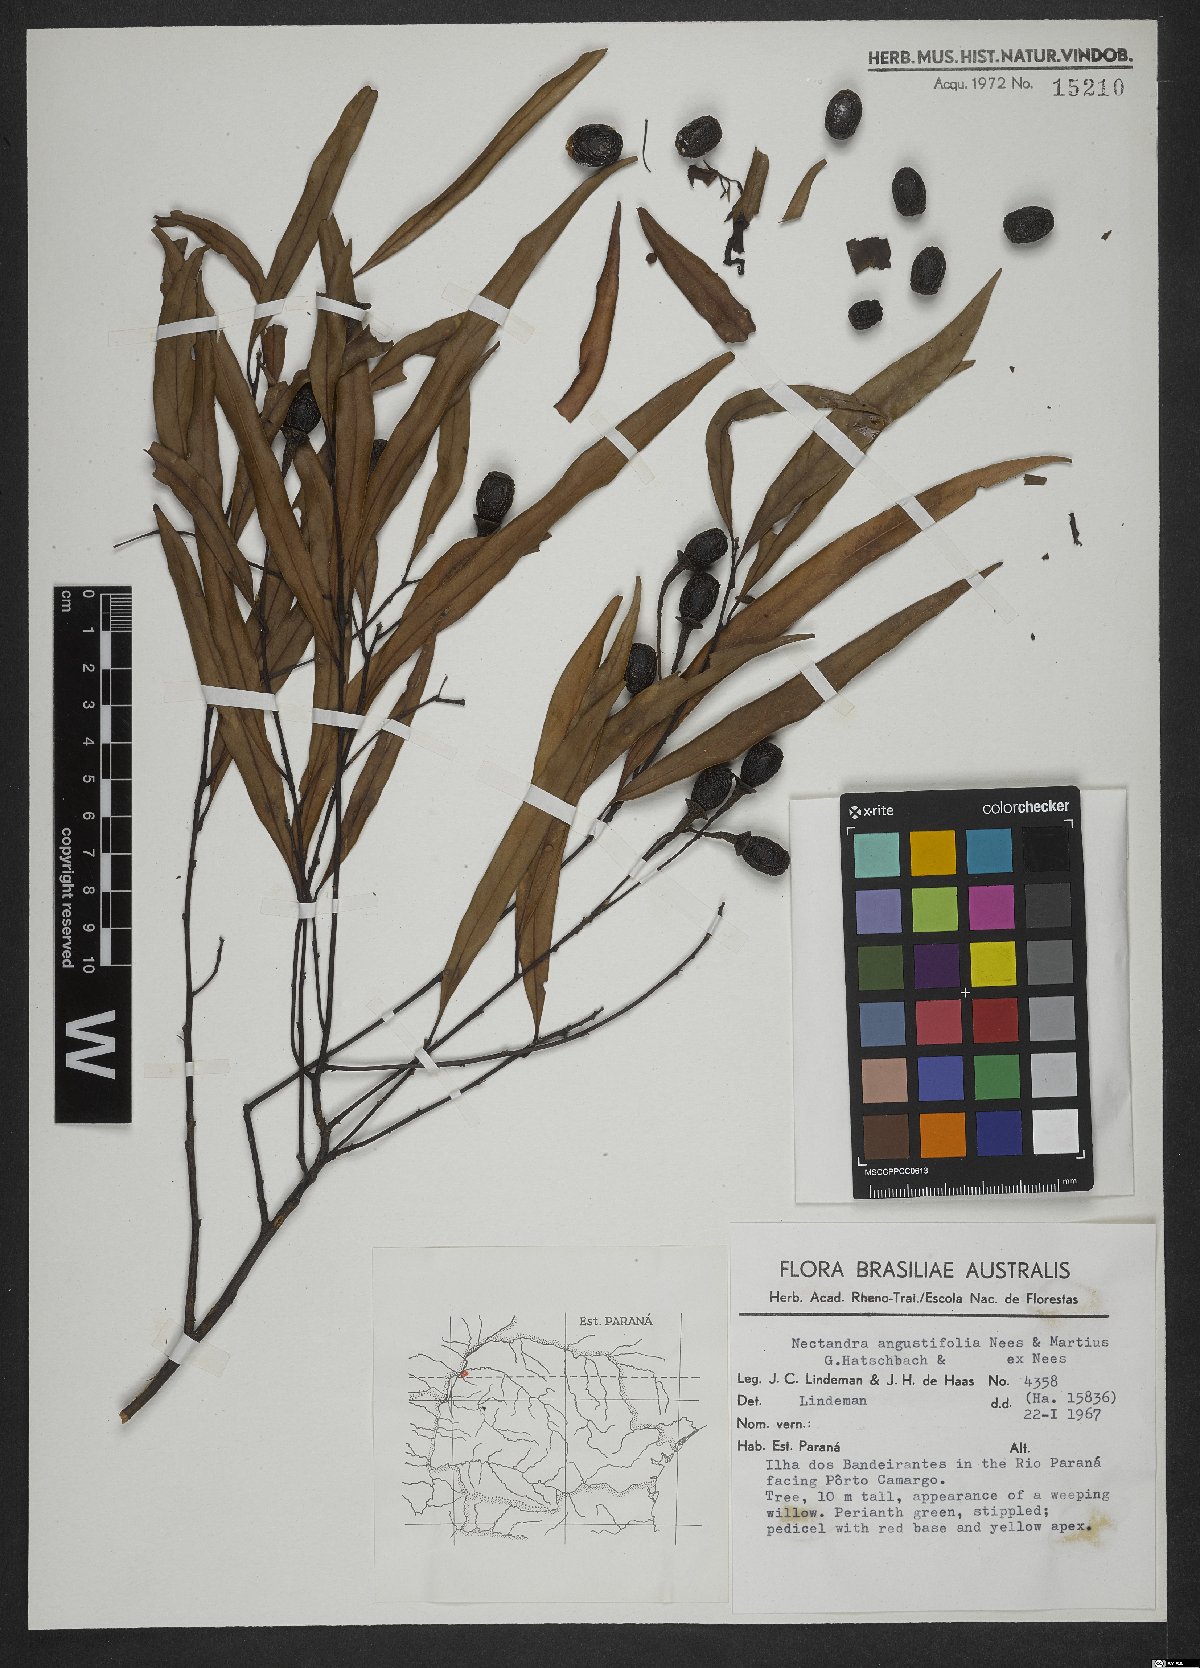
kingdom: Plantae
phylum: Tracheophyta
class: Magnoliopsida
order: Laurales
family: Lauraceae
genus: Nectandra
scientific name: Nectandra angustifolia
